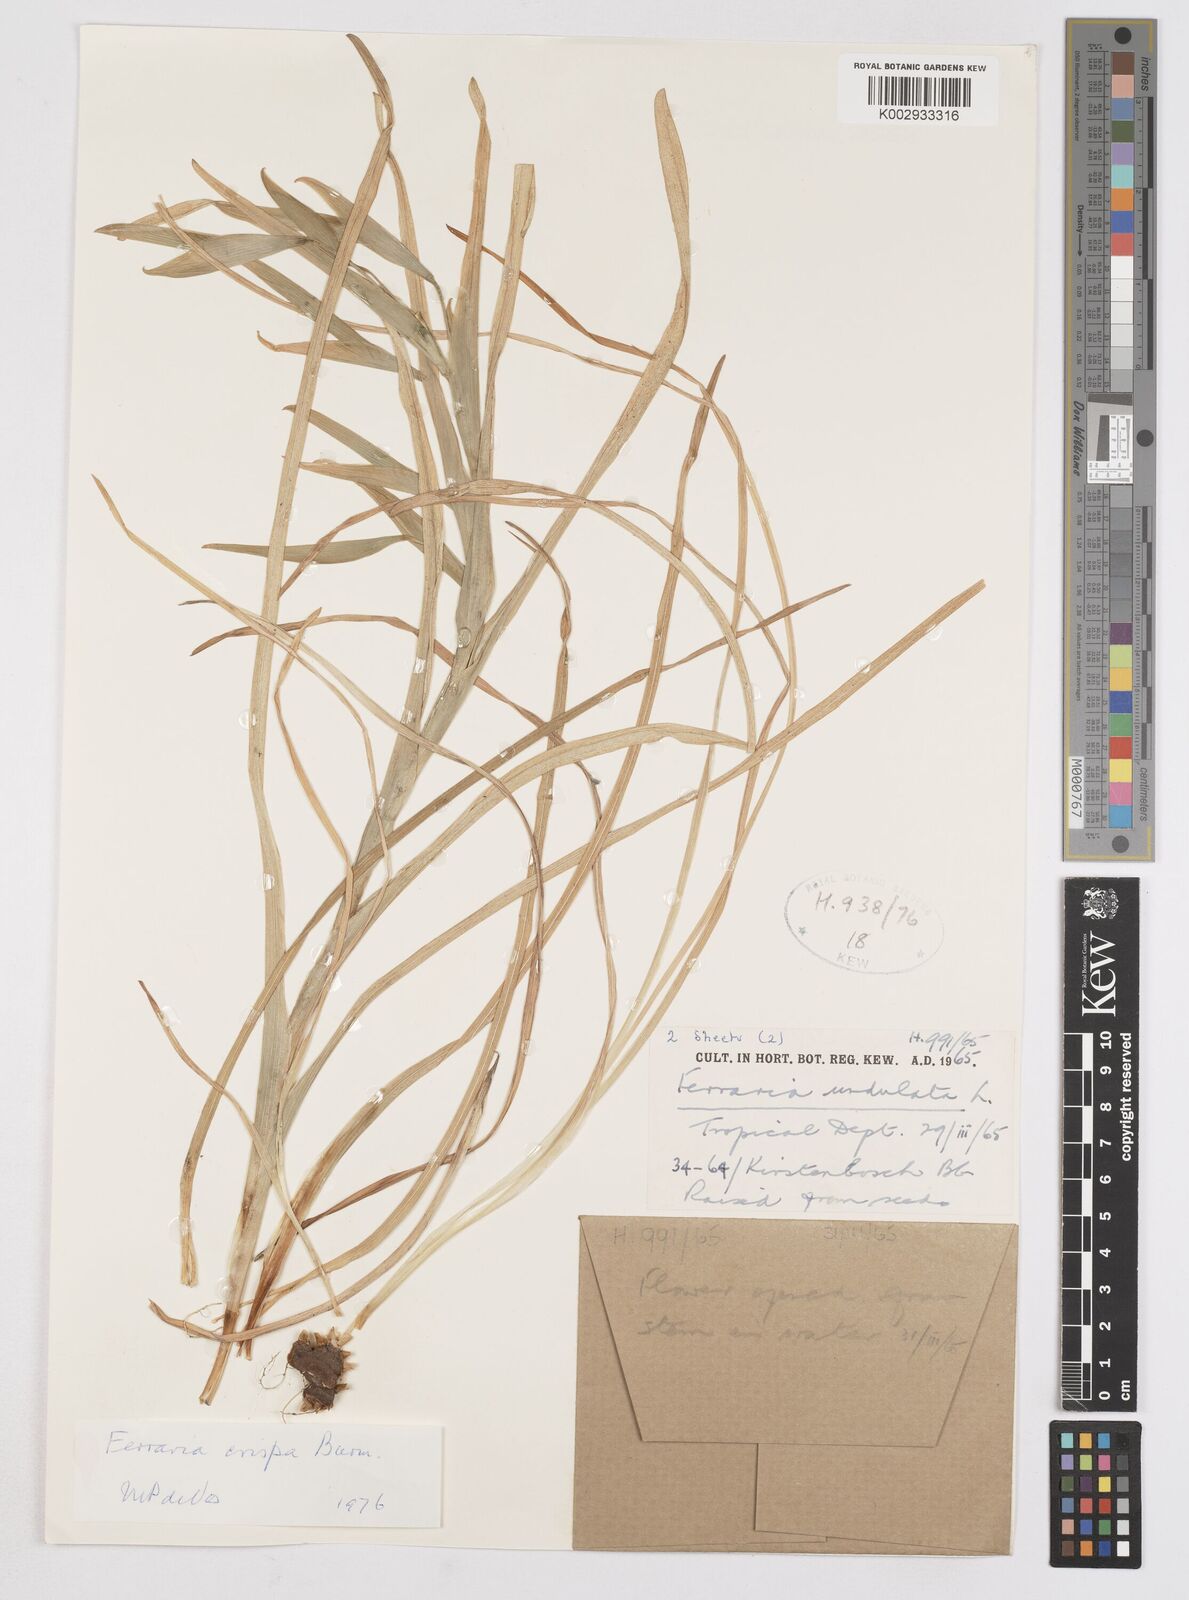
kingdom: Plantae
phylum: Tracheophyta
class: Liliopsida
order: Asparagales
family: Iridaceae
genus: Ferraria
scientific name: Ferraria crispa
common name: Black-flag
